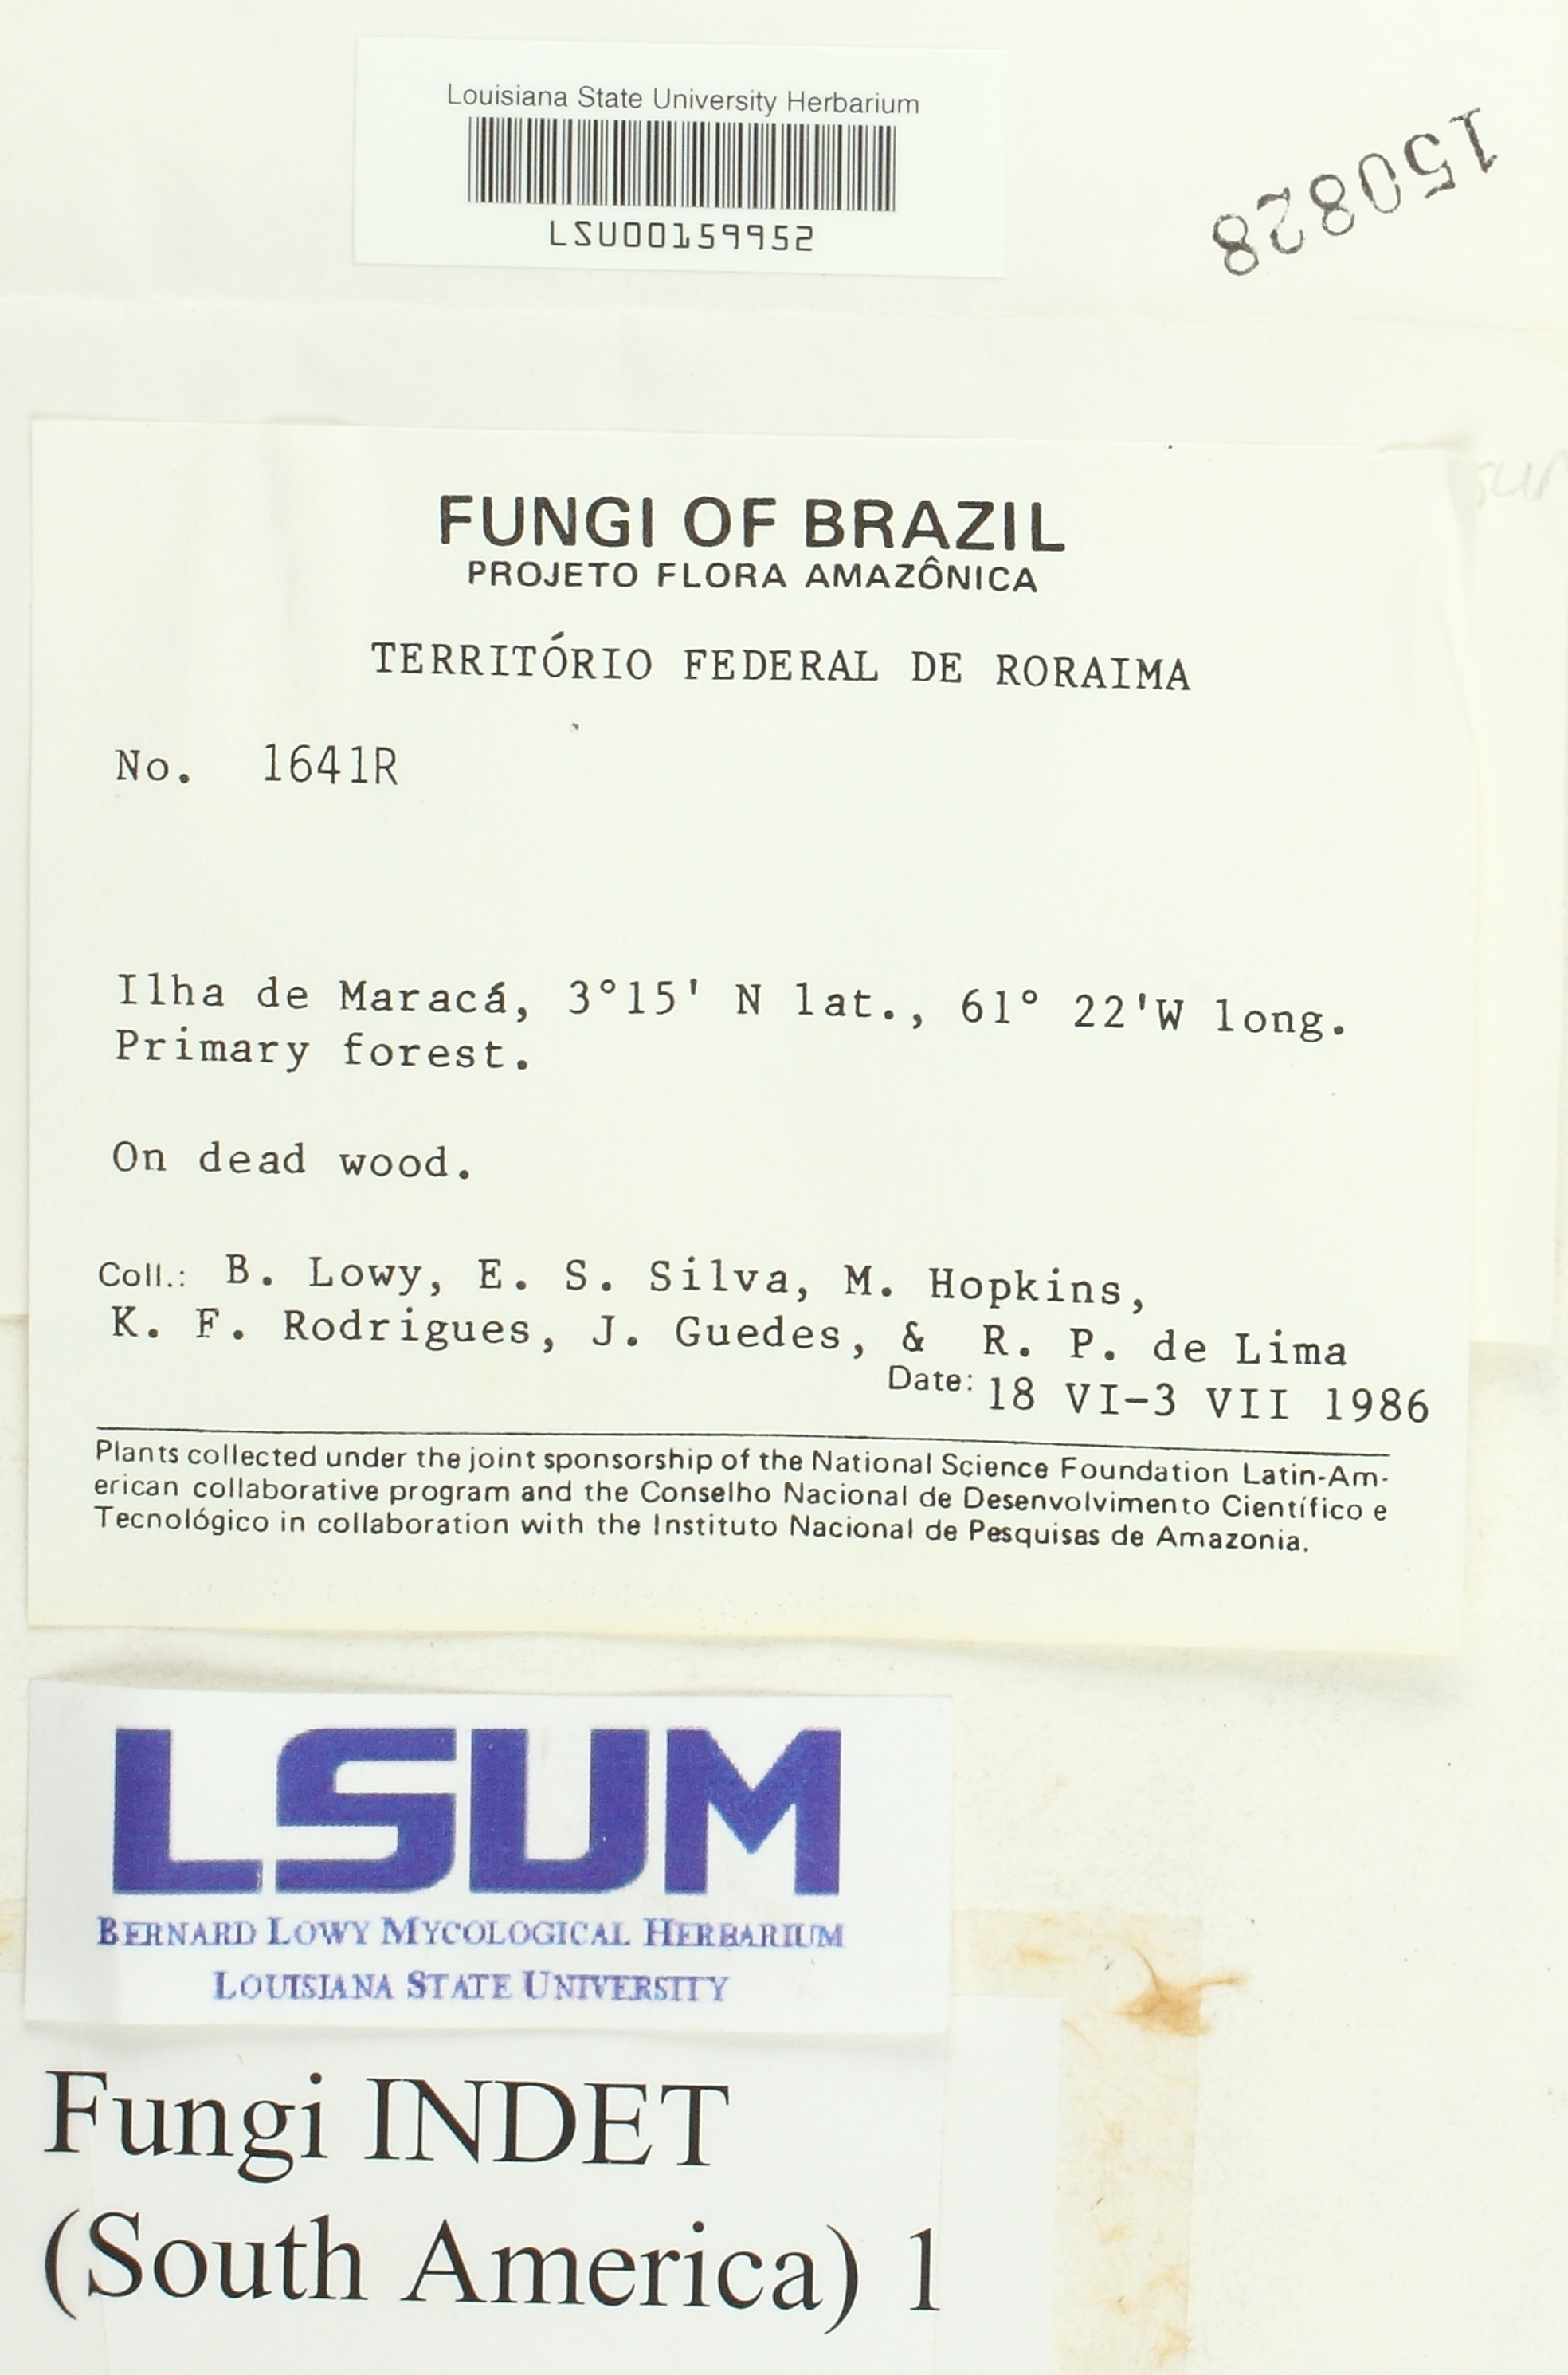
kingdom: Fungi
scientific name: Fungi
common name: Fungi
